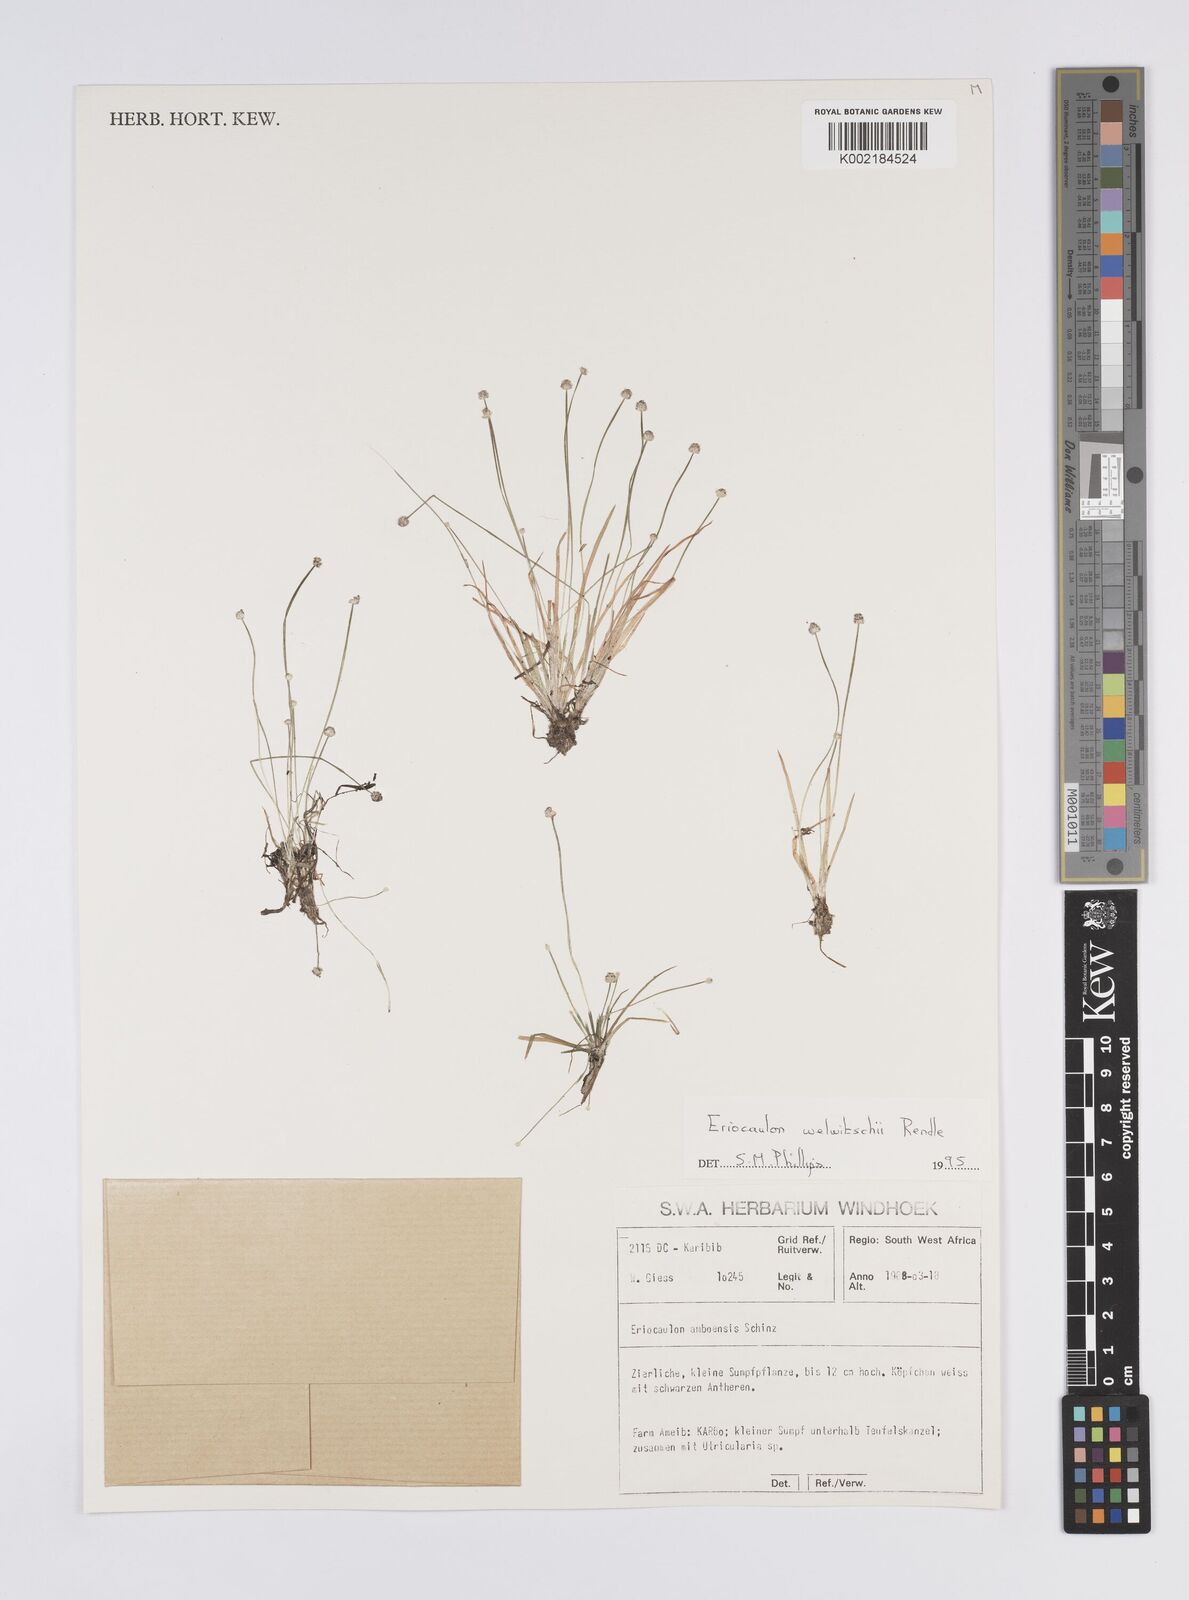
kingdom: Plantae
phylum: Tracheophyta
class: Liliopsida
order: Poales
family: Eriocaulaceae
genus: Eriocaulon
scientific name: Eriocaulon welwitschii
